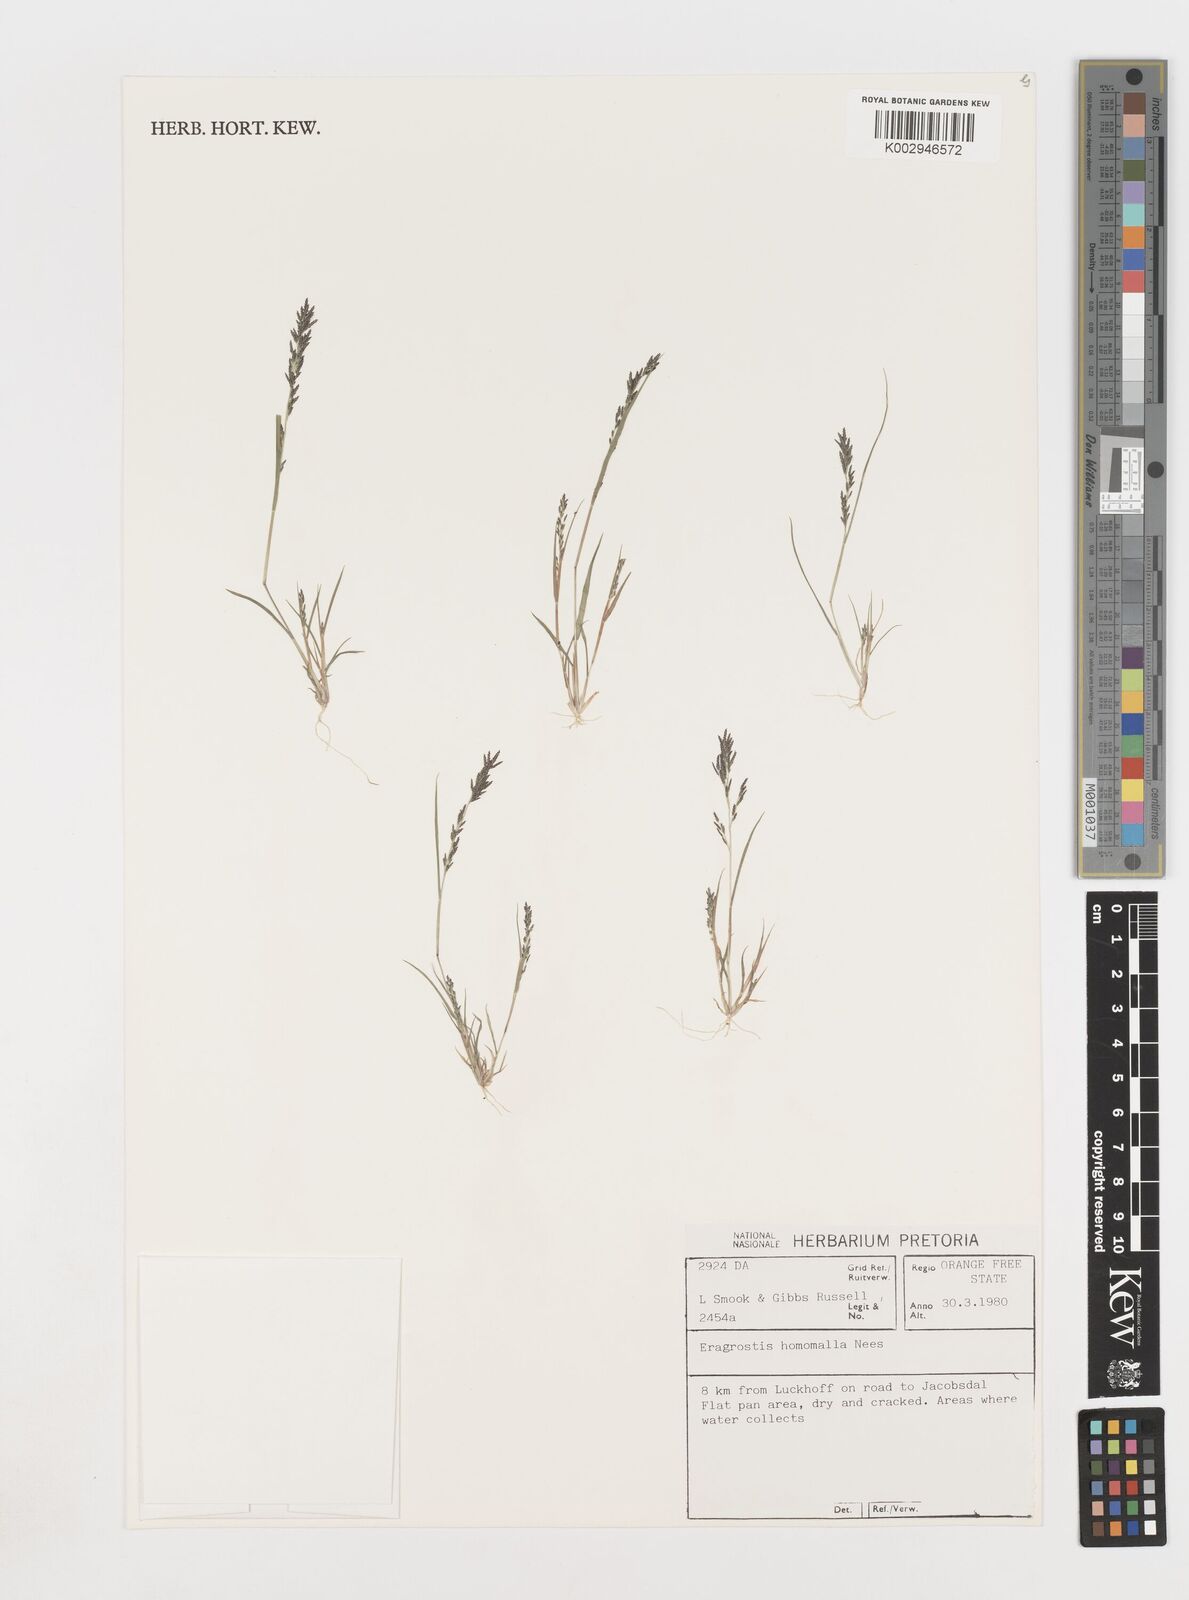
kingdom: Plantae
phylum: Tracheophyta
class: Liliopsida
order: Poales
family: Poaceae
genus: Eragrostis
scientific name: Eragrostis homomalla
